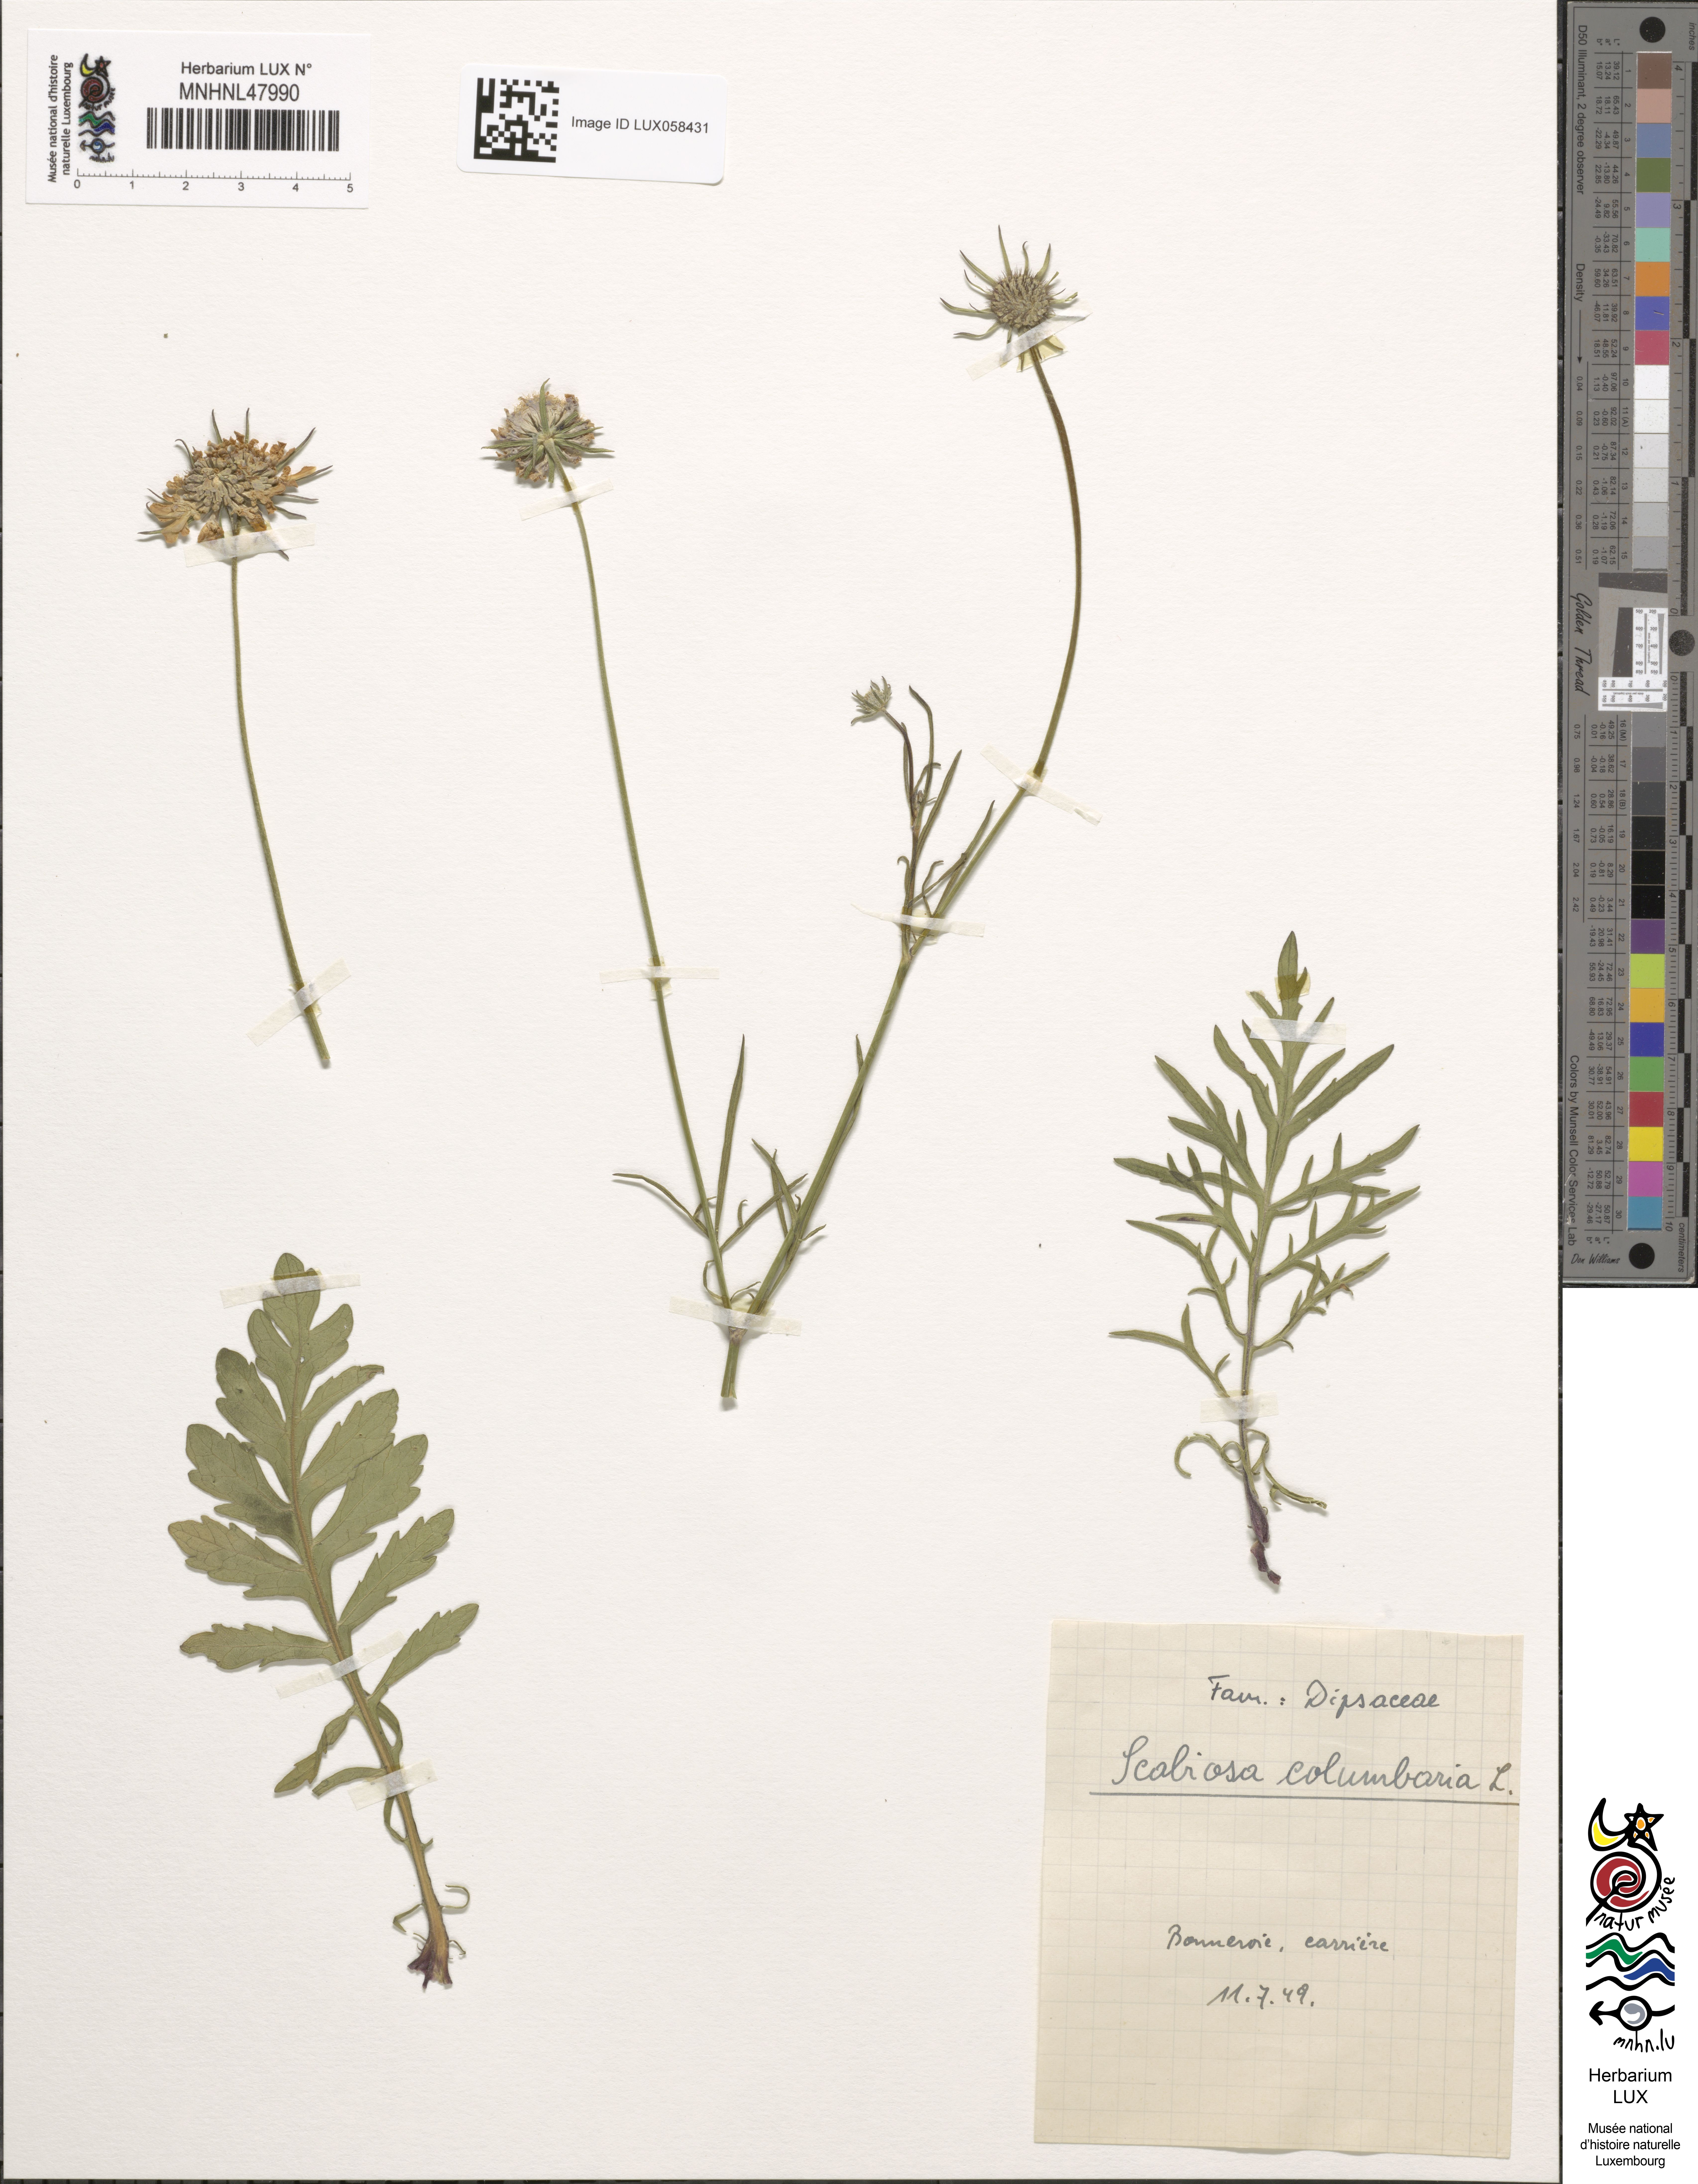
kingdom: Plantae
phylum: Tracheophyta
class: Magnoliopsida
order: Dipsacales
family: Caprifoliaceae
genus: Scabiosa
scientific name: Scabiosa columbaria
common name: Small scabious
